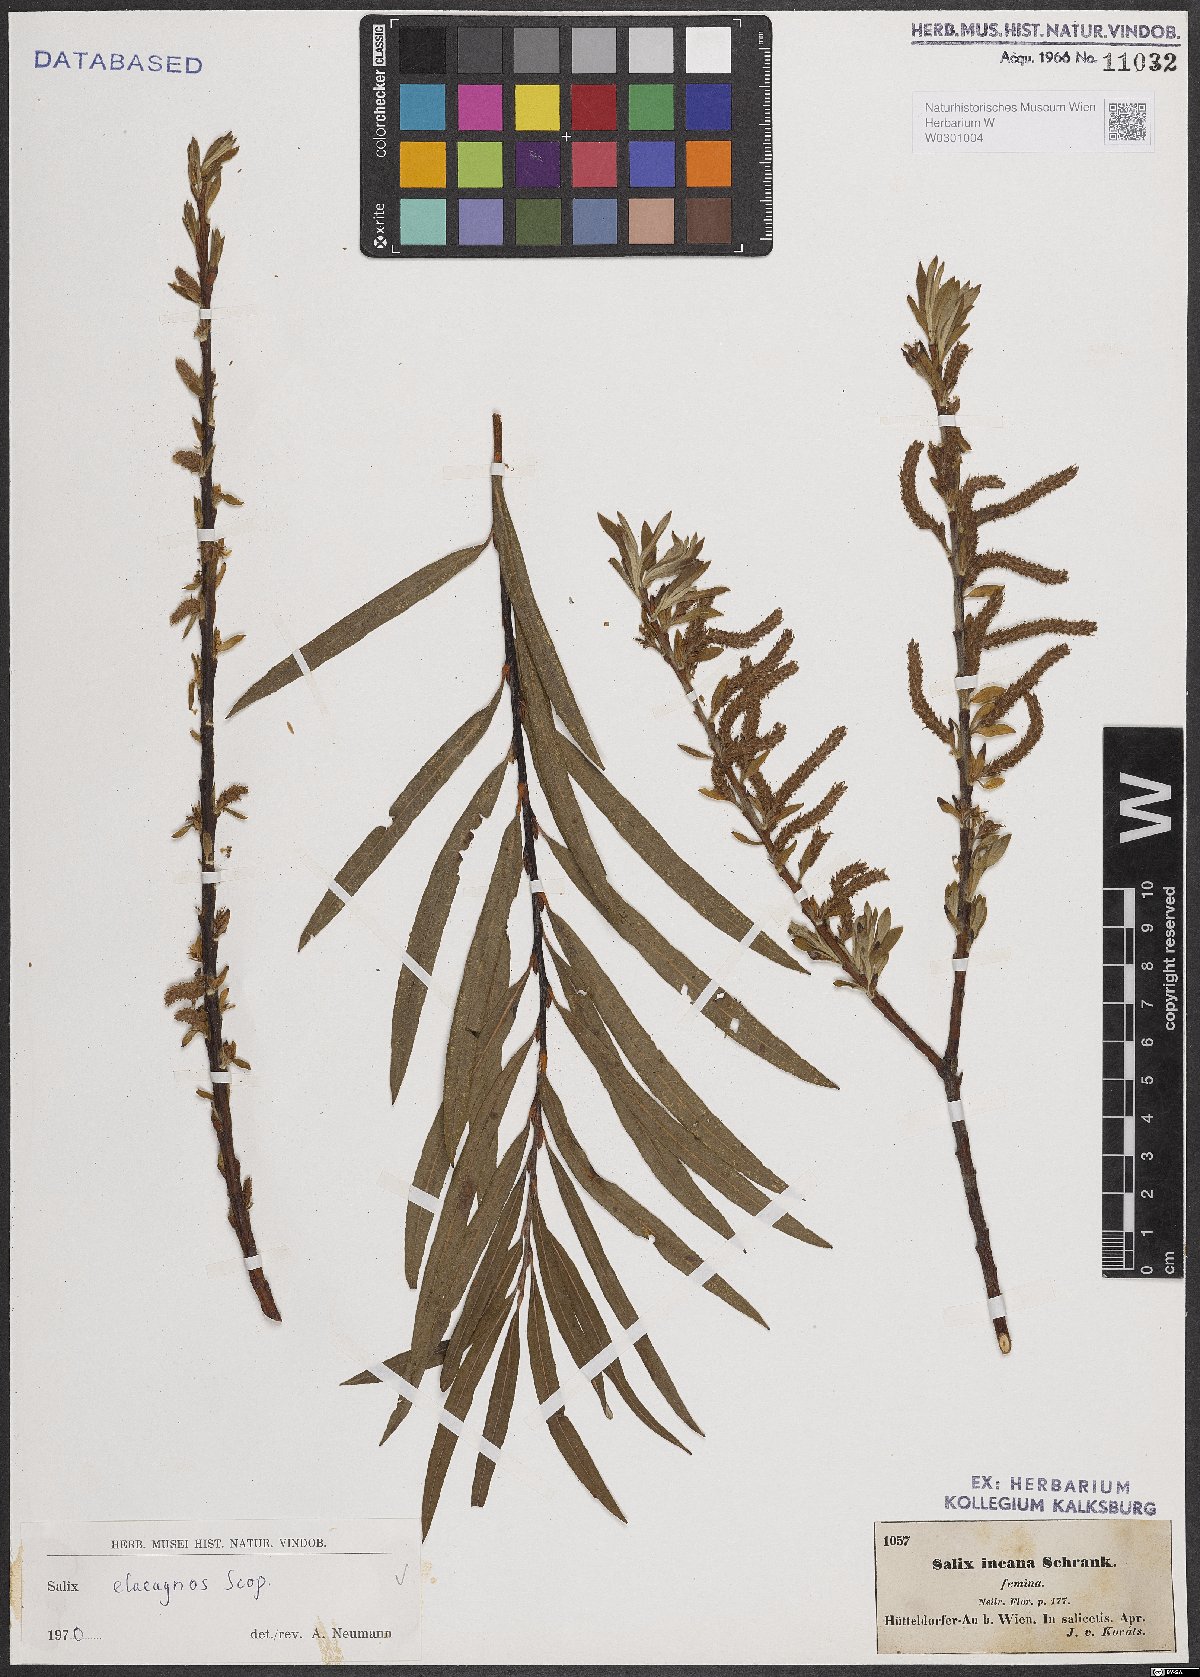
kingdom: Plantae
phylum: Tracheophyta
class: Magnoliopsida
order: Malpighiales
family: Salicaceae
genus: Salix
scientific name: Salix eleagnos
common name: Elaeagnus willow
